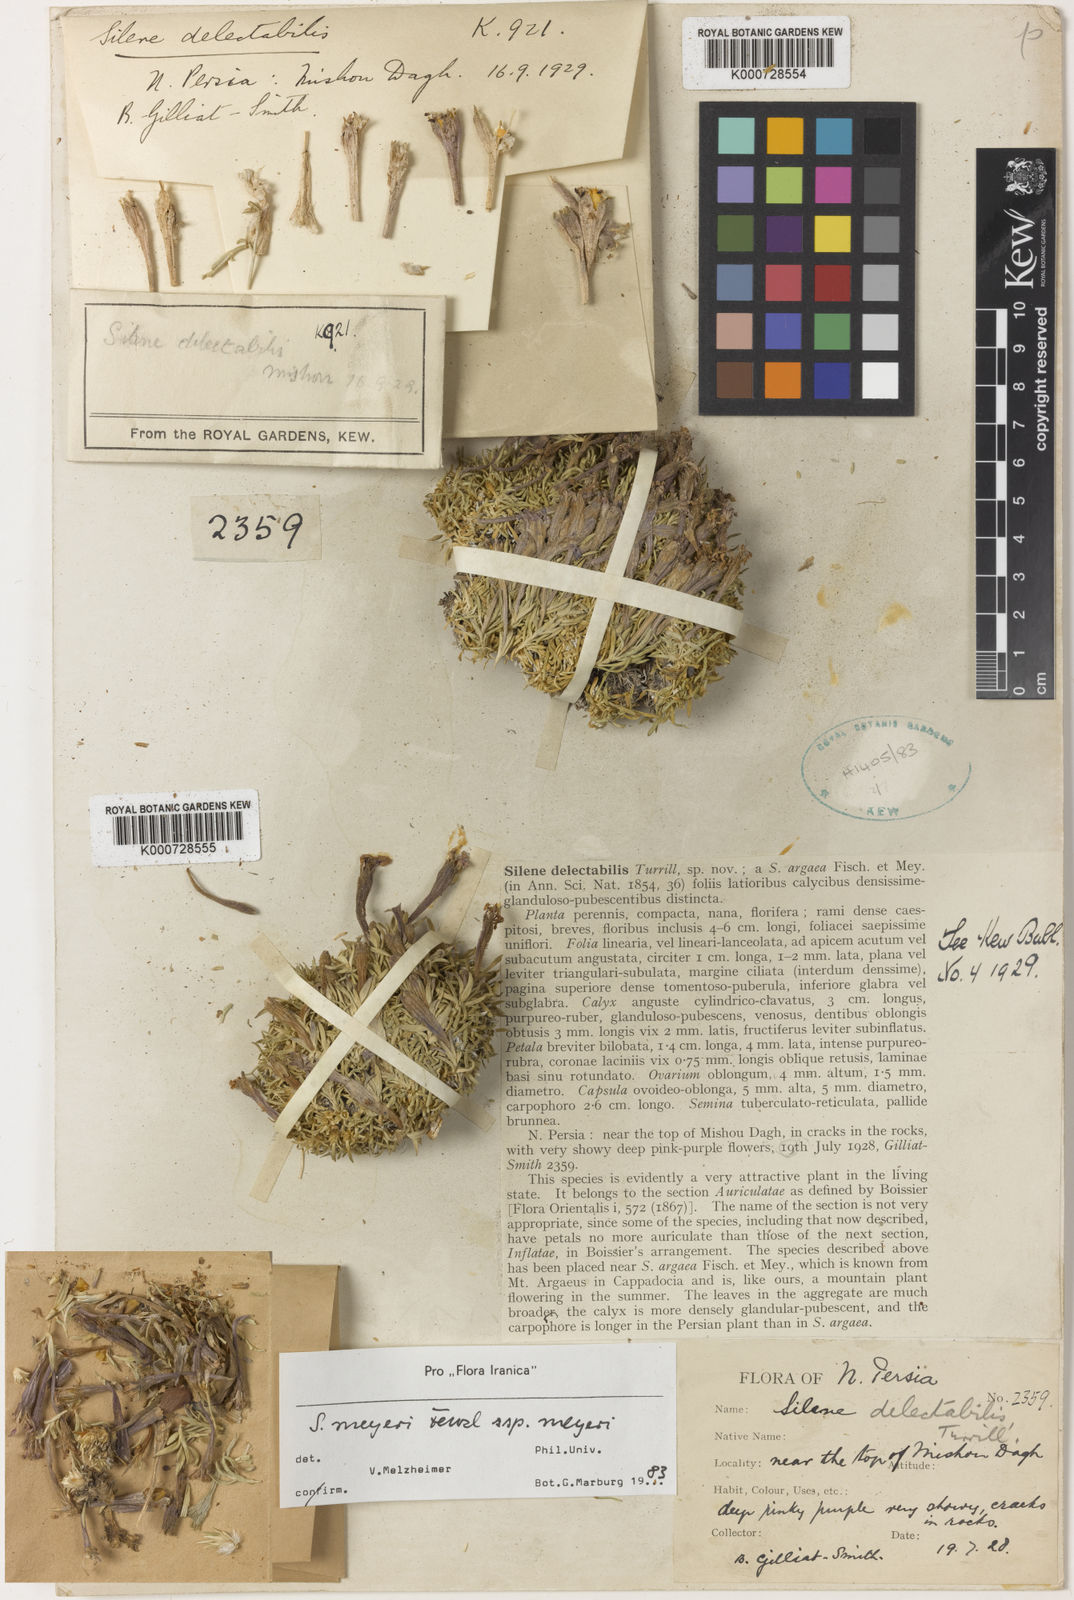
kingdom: Plantae
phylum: Tracheophyta
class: Magnoliopsida
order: Caryophyllales
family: Caryophyllaceae
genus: Silene
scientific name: Silene meyeri
